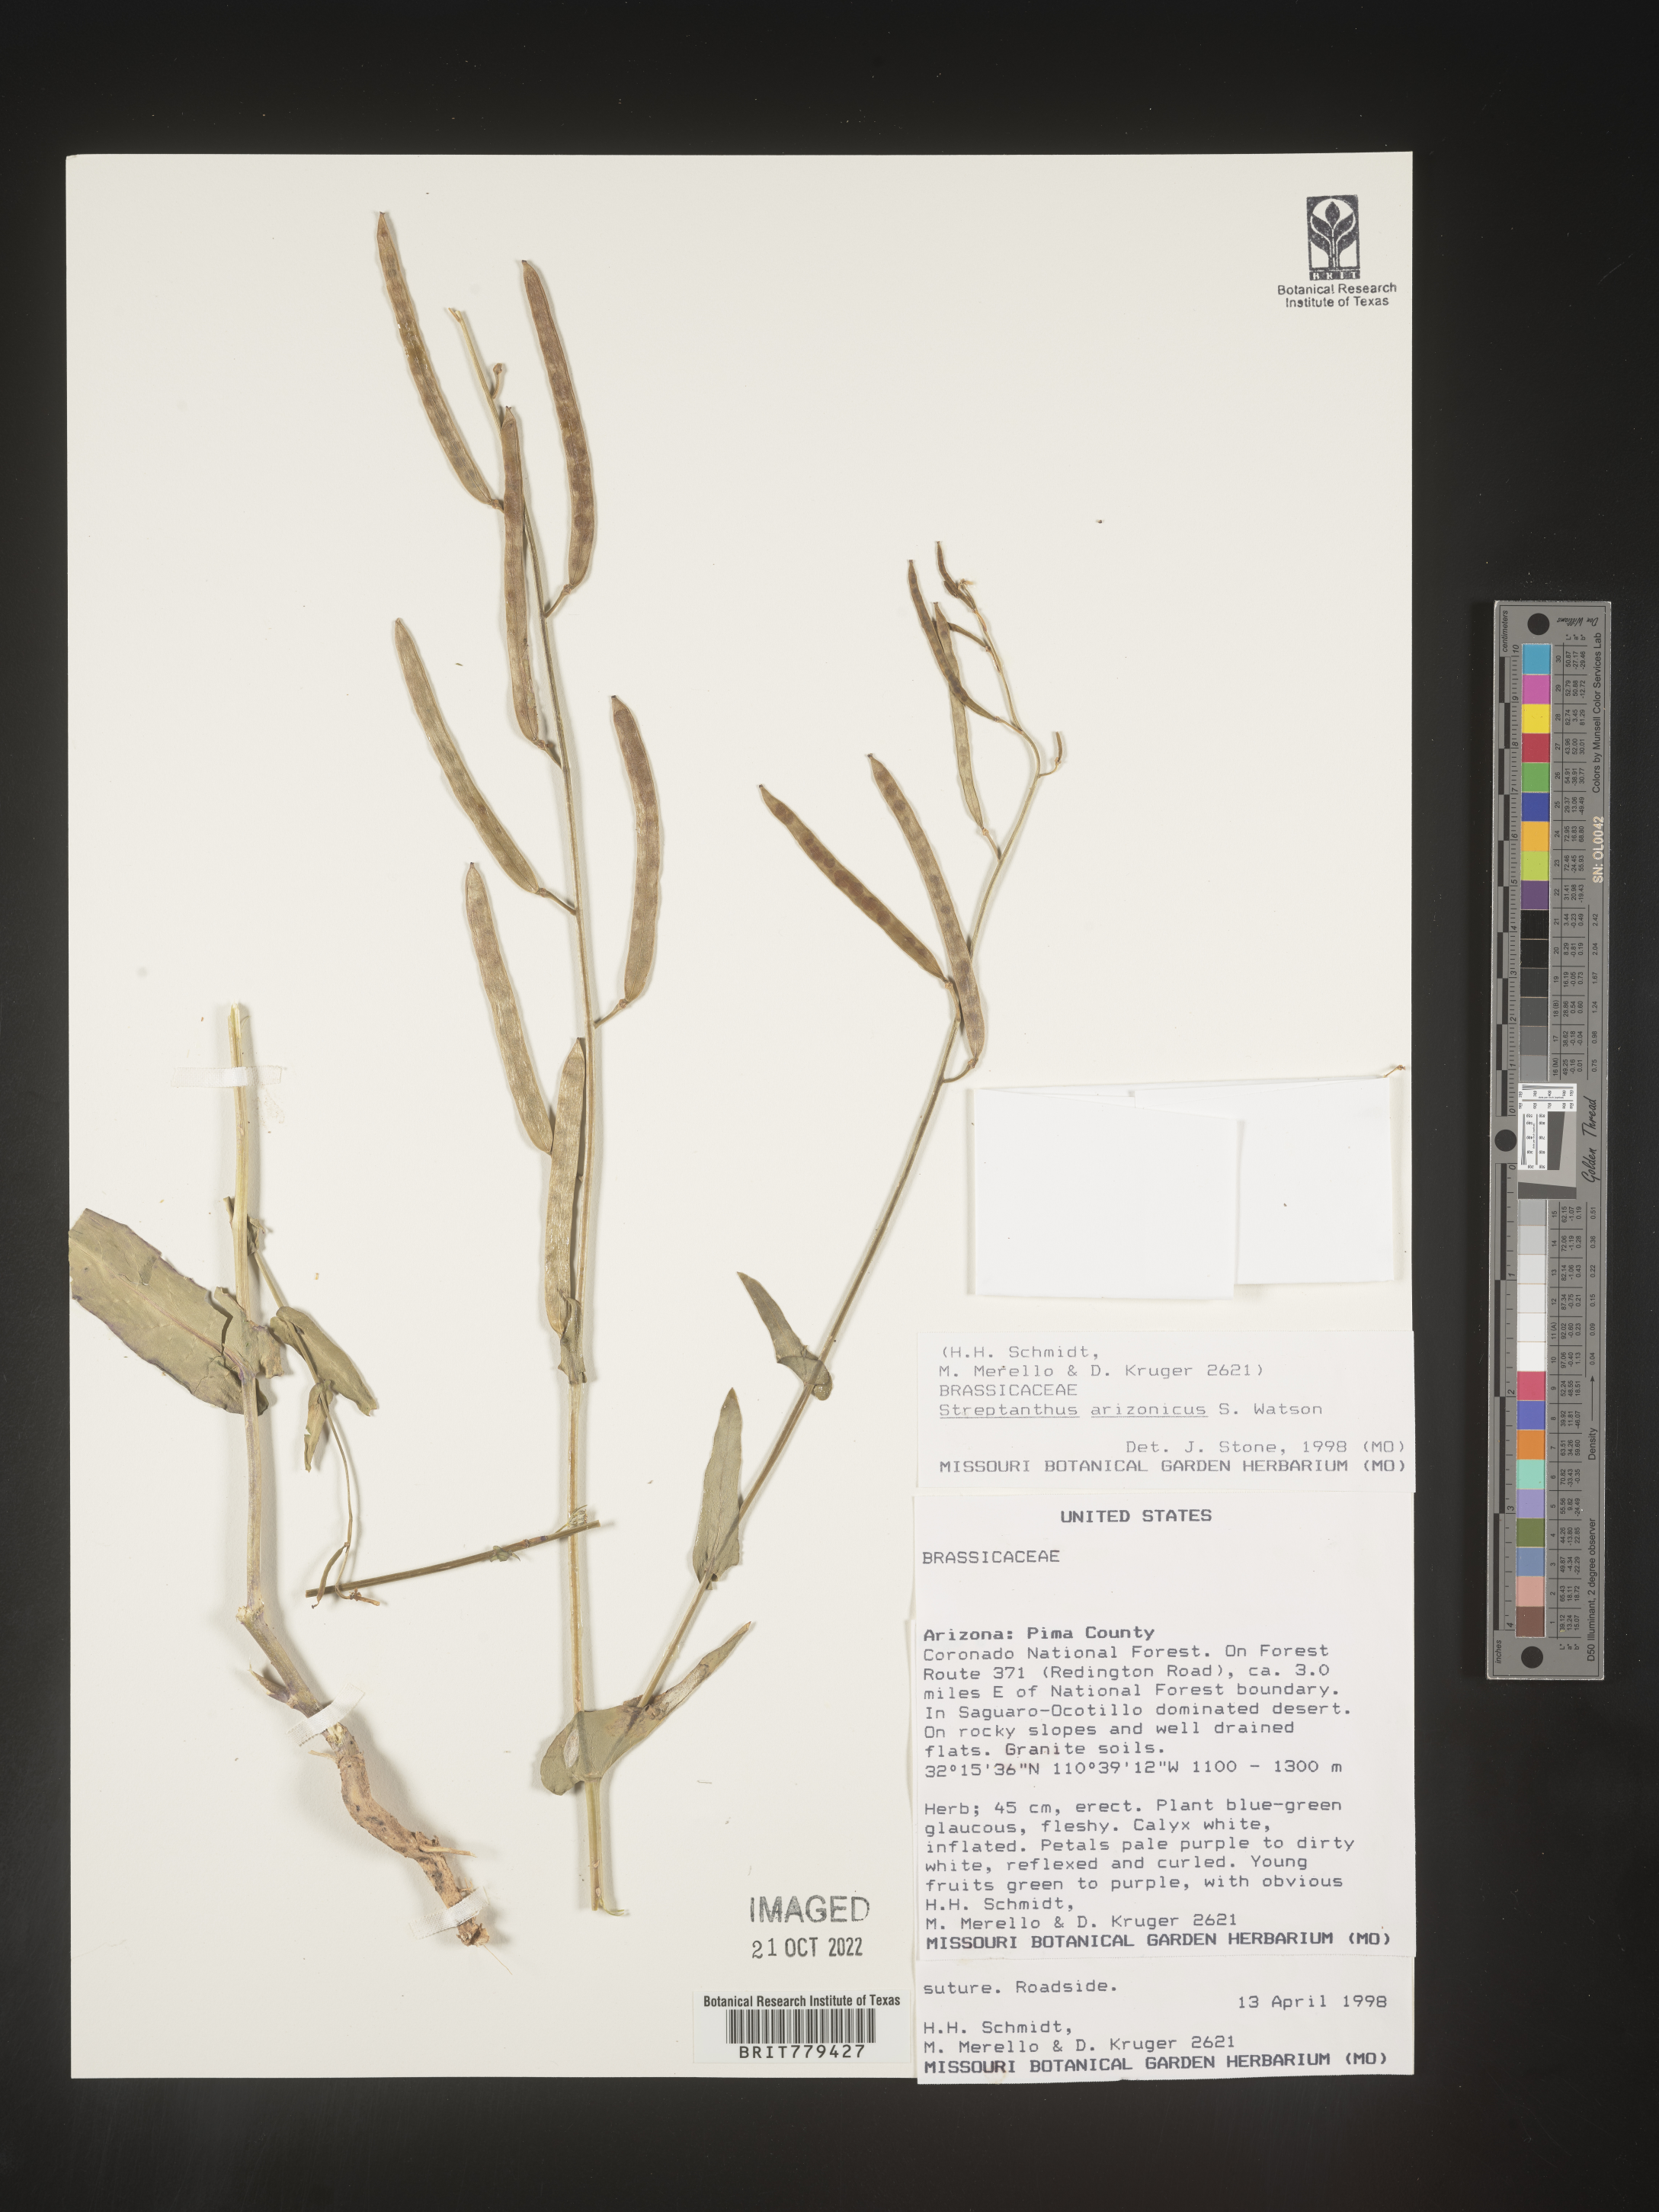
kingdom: Plantae
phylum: Tracheophyta
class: Magnoliopsida
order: Brassicales
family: Brassicaceae
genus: Streptanthus
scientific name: Streptanthus
